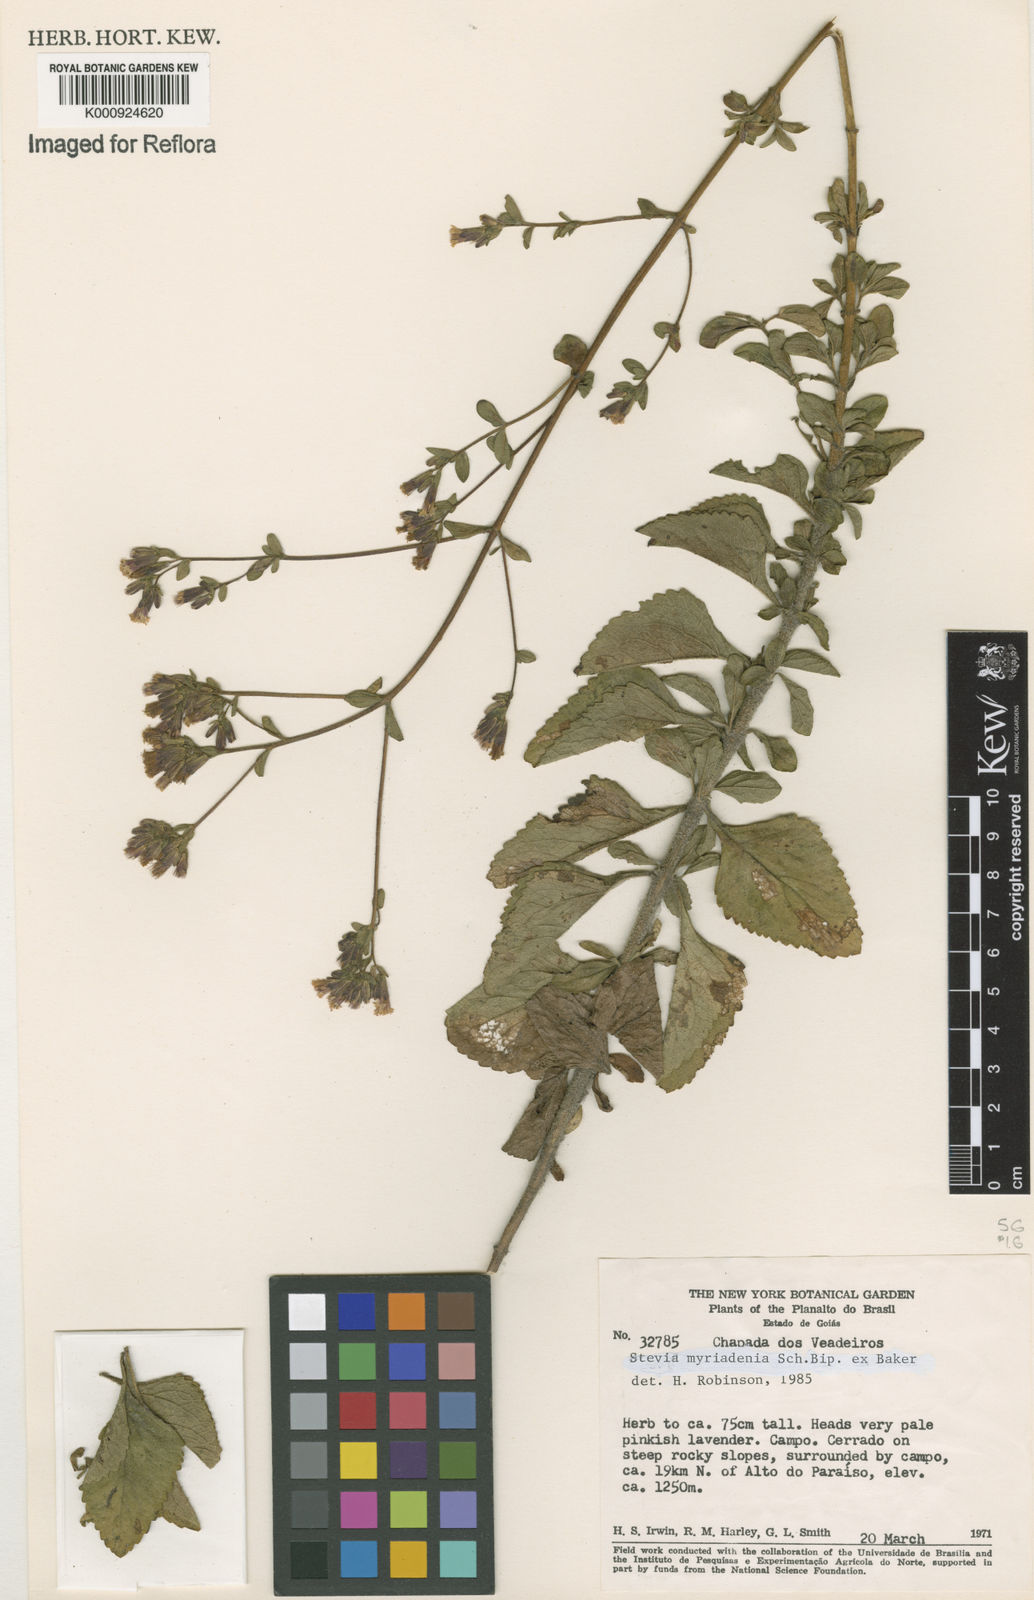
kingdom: Plantae
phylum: Tracheophyta
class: Magnoliopsida
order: Asterales
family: Asteraceae
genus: Stevia
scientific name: Stevia
